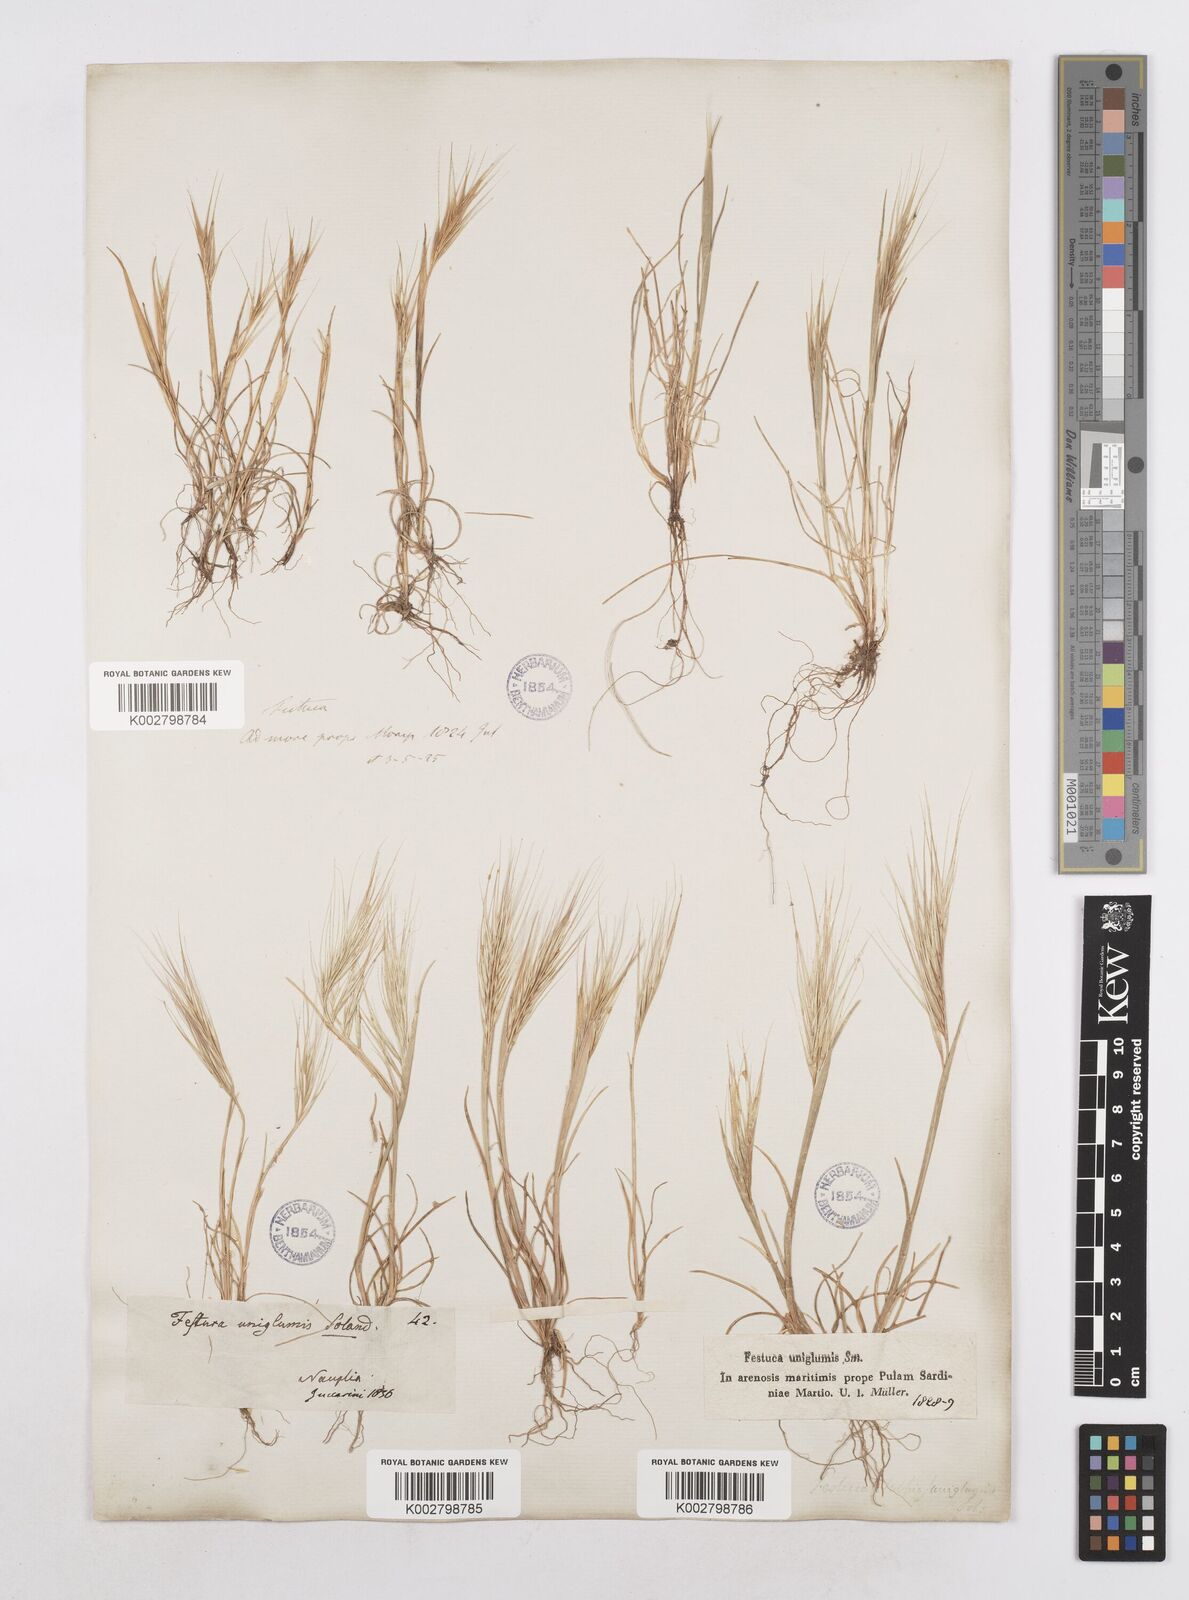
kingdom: Plantae
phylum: Tracheophyta
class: Liliopsida
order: Poales
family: Poaceae
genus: Festuca
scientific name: Festuca fasciculata
